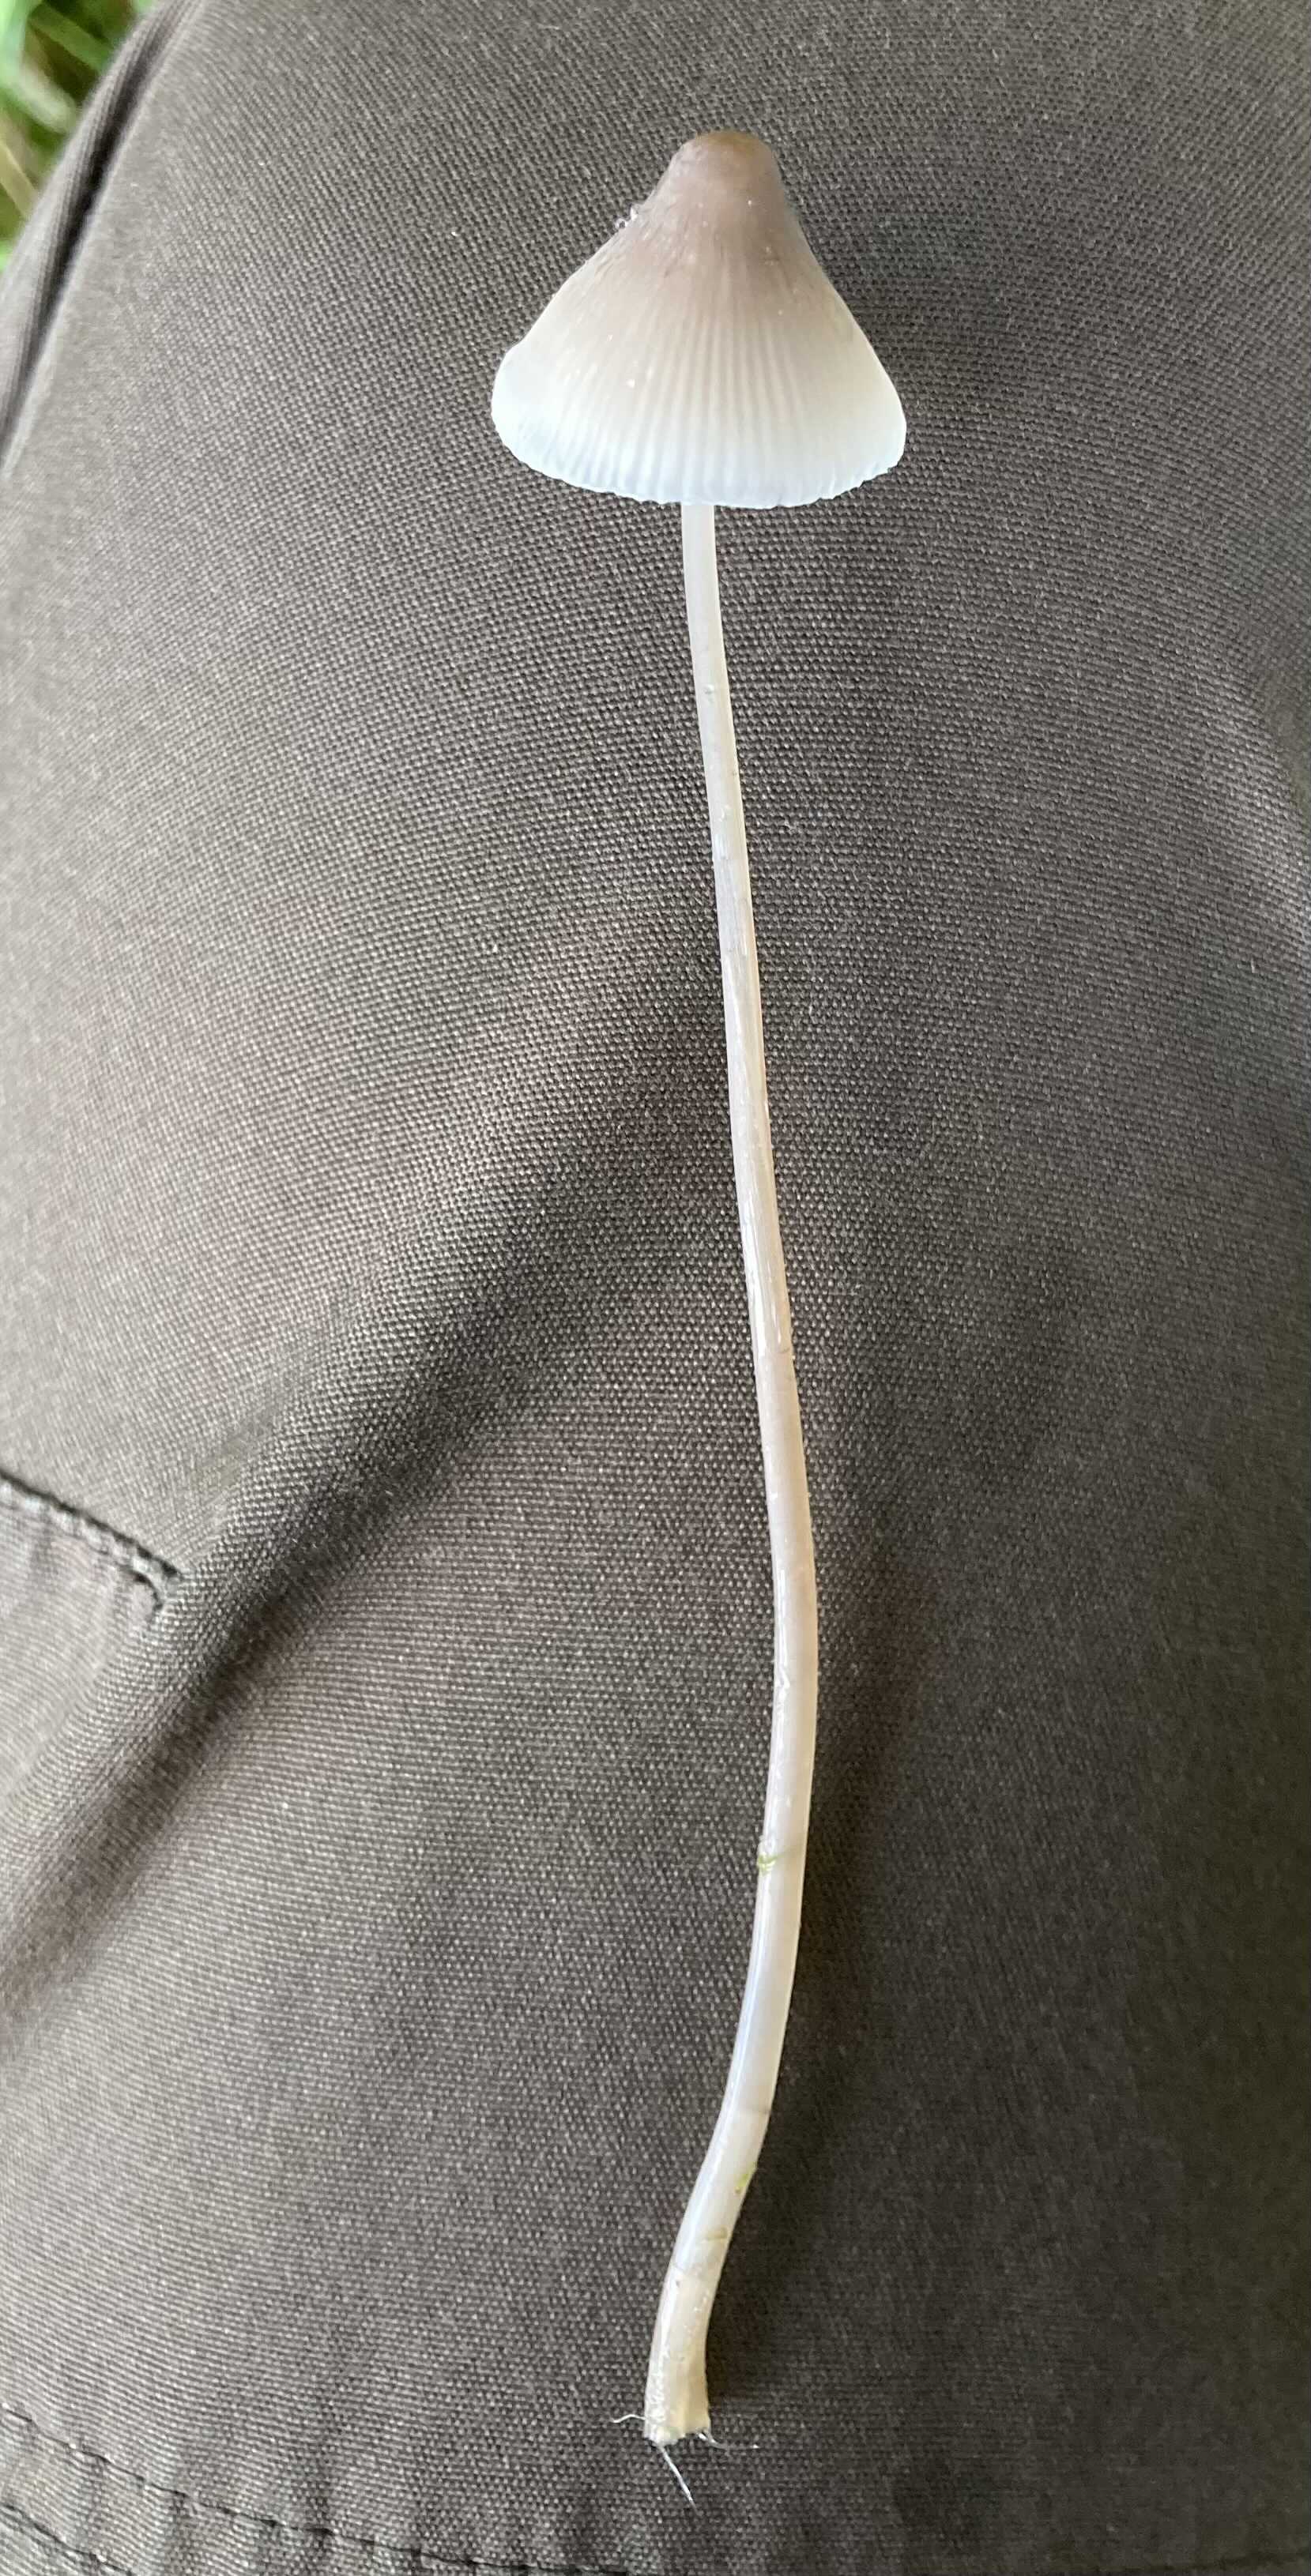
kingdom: Fungi
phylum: Basidiomycota
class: Agaricomycetes
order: Agaricales
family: Mycenaceae
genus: Mycena
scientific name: Mycena
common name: huesvamp
